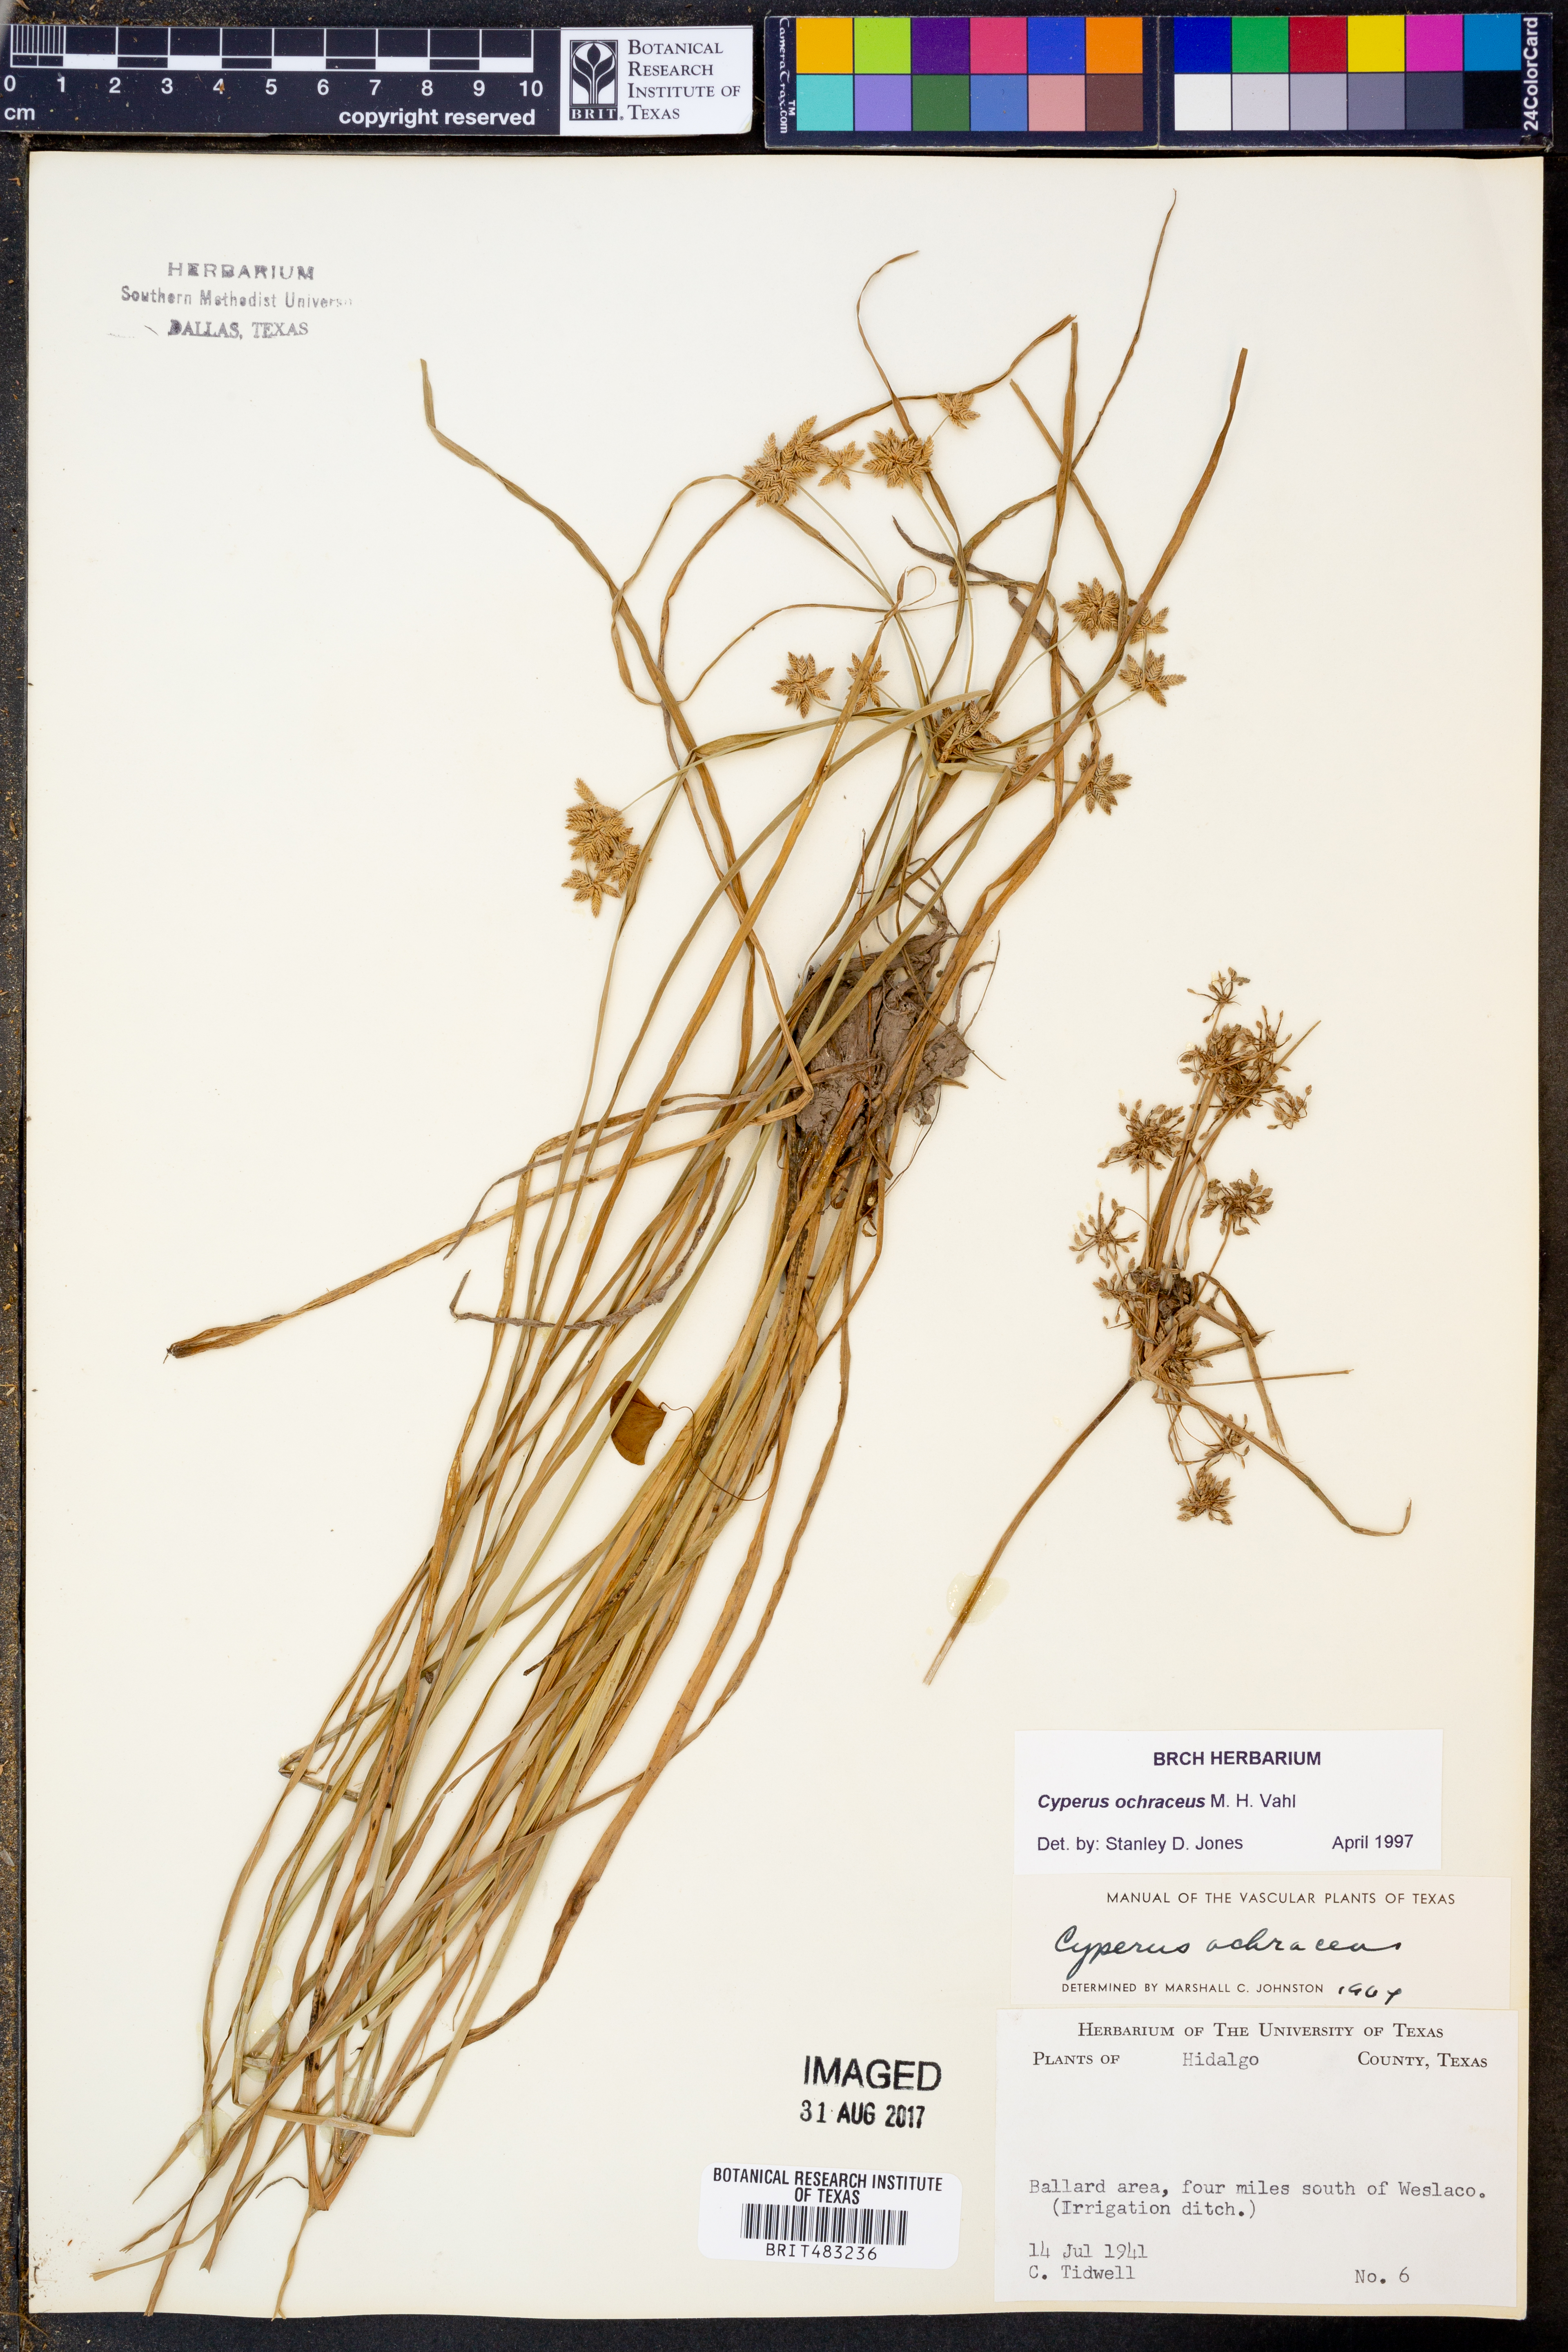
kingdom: Plantae
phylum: Tracheophyta
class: Liliopsida
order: Poales
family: Cyperaceae
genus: Cyperus
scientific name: Cyperus ochraceus
